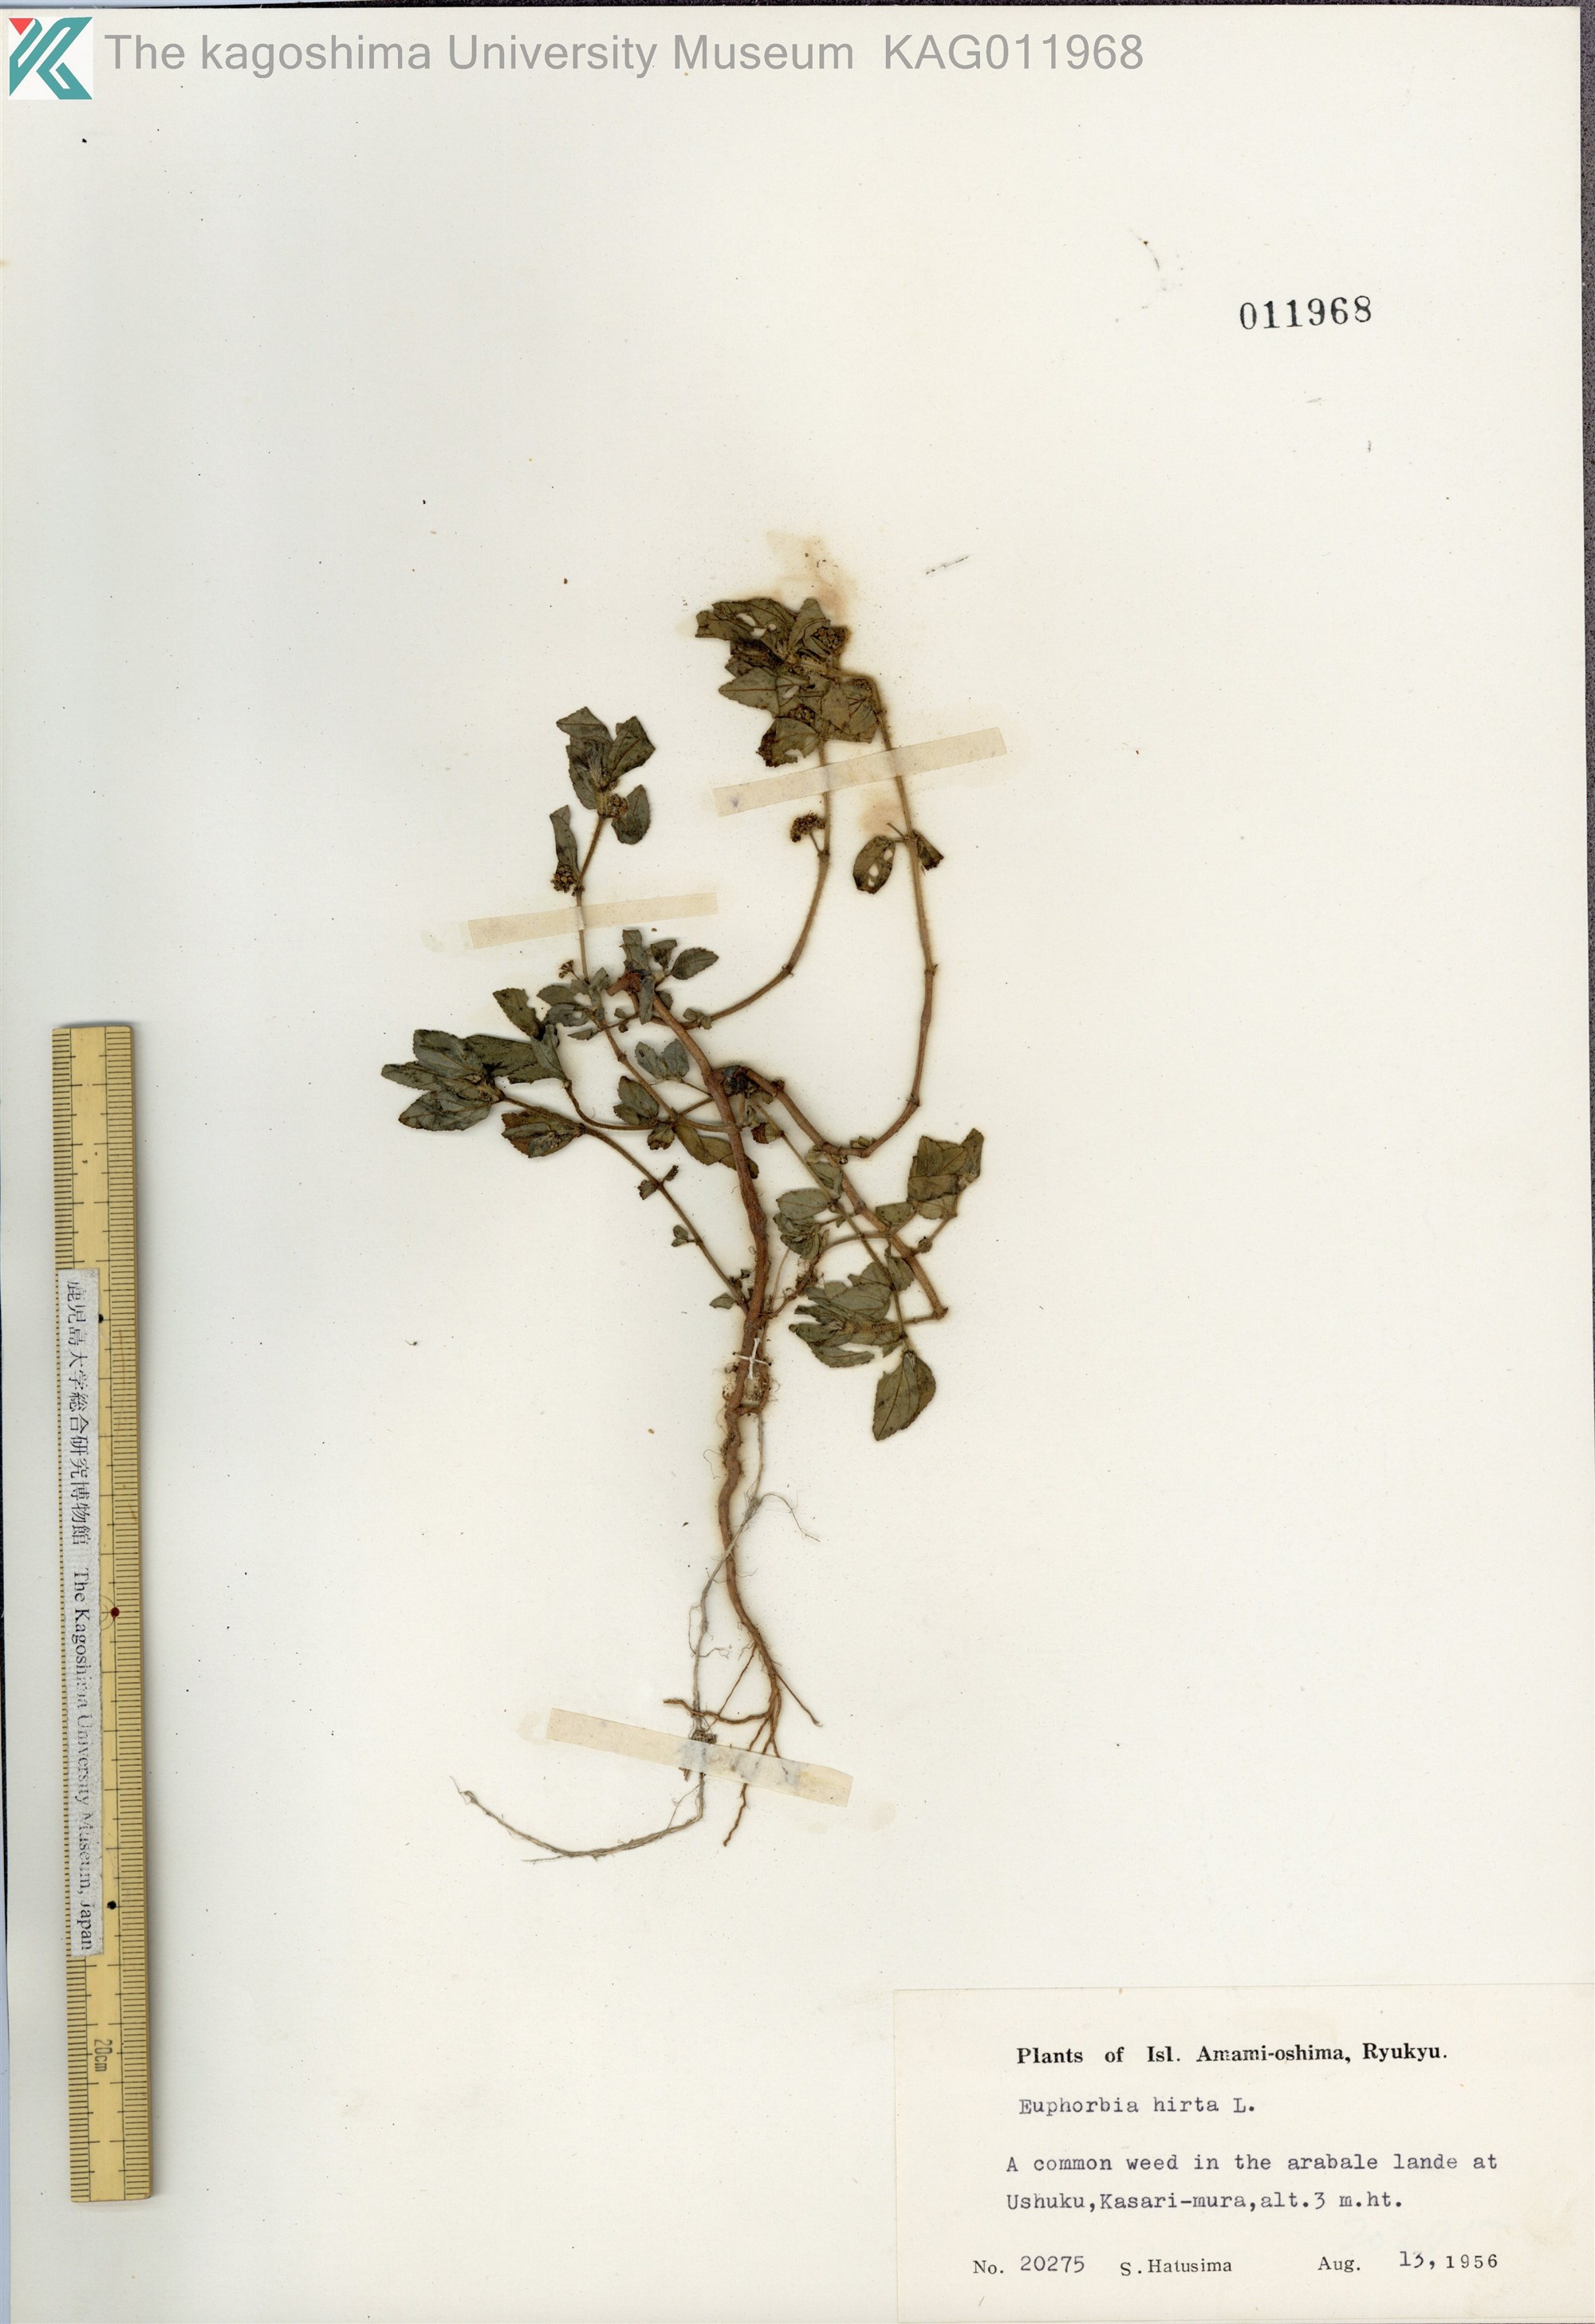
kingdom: Plantae
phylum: Tracheophyta
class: Magnoliopsida
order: Malpighiales
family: Euphorbiaceae
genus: Euphorbia
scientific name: Euphorbia hirta
